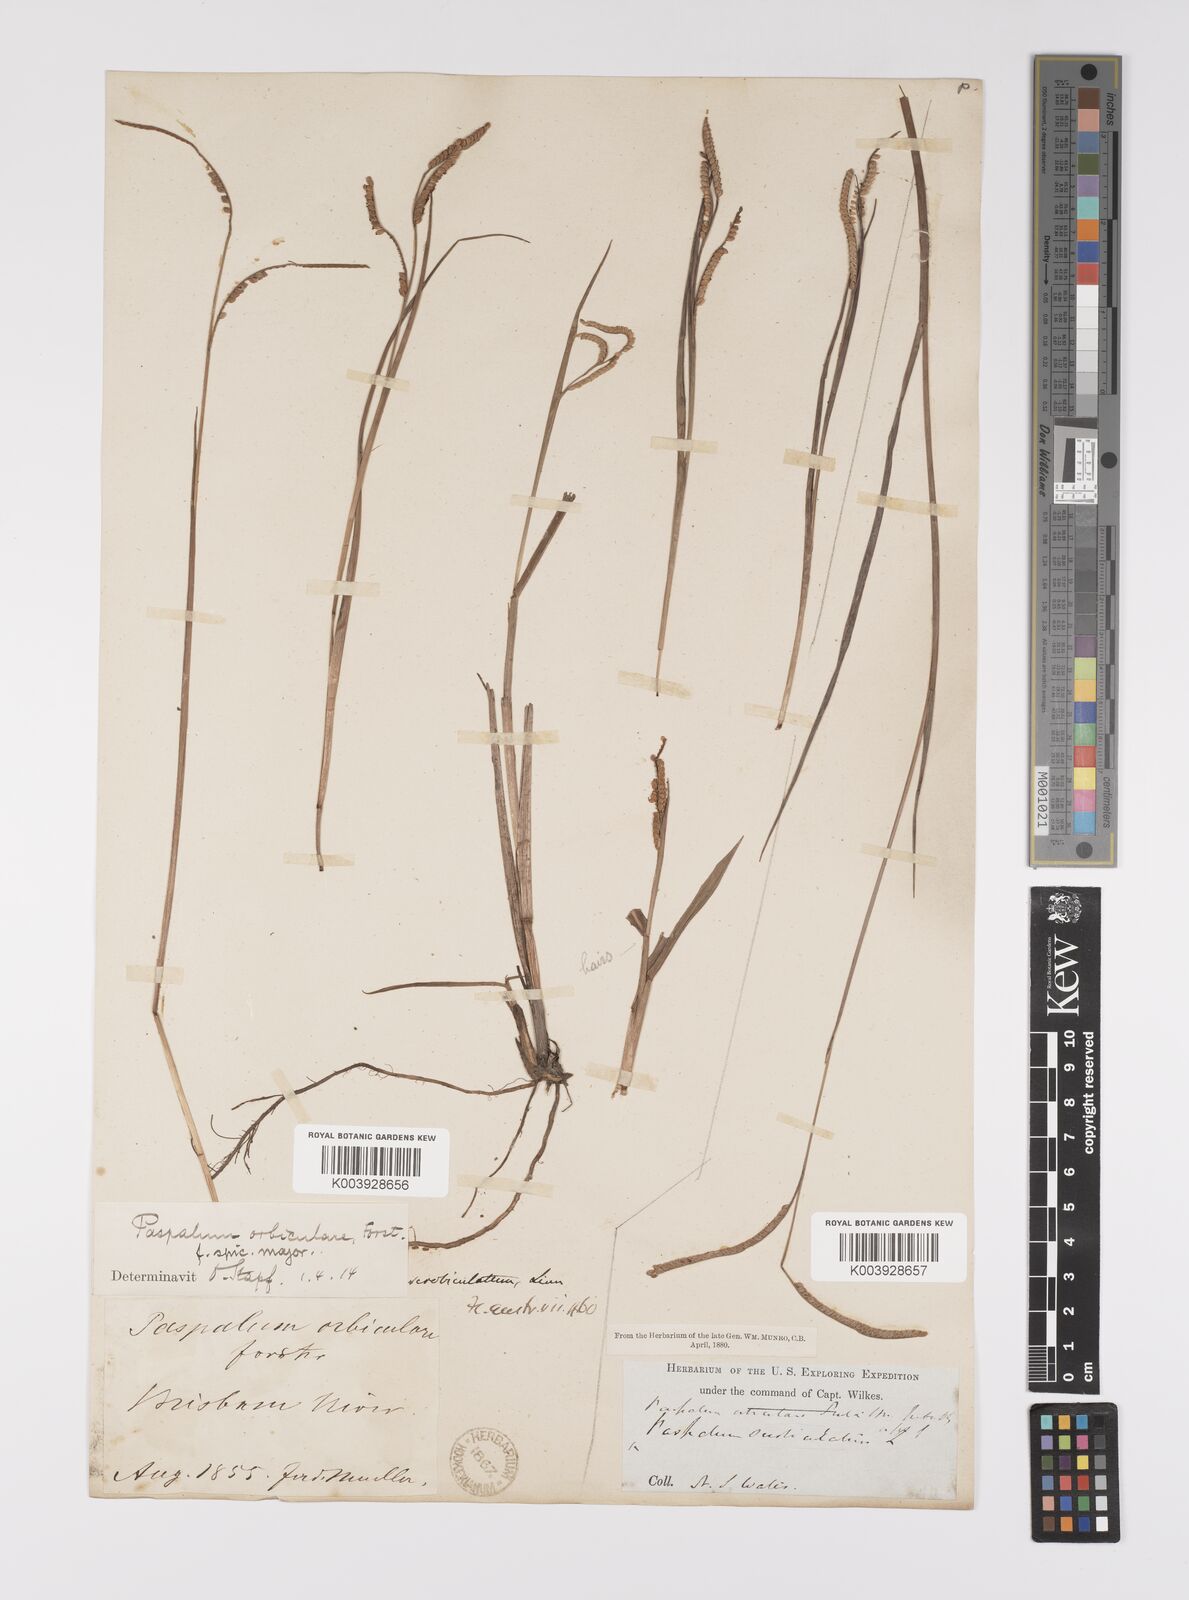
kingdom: Plantae
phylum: Tracheophyta
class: Liliopsida
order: Poales
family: Poaceae
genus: Paspalum
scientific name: Paspalum scrobiculatum
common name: Kodo millet
